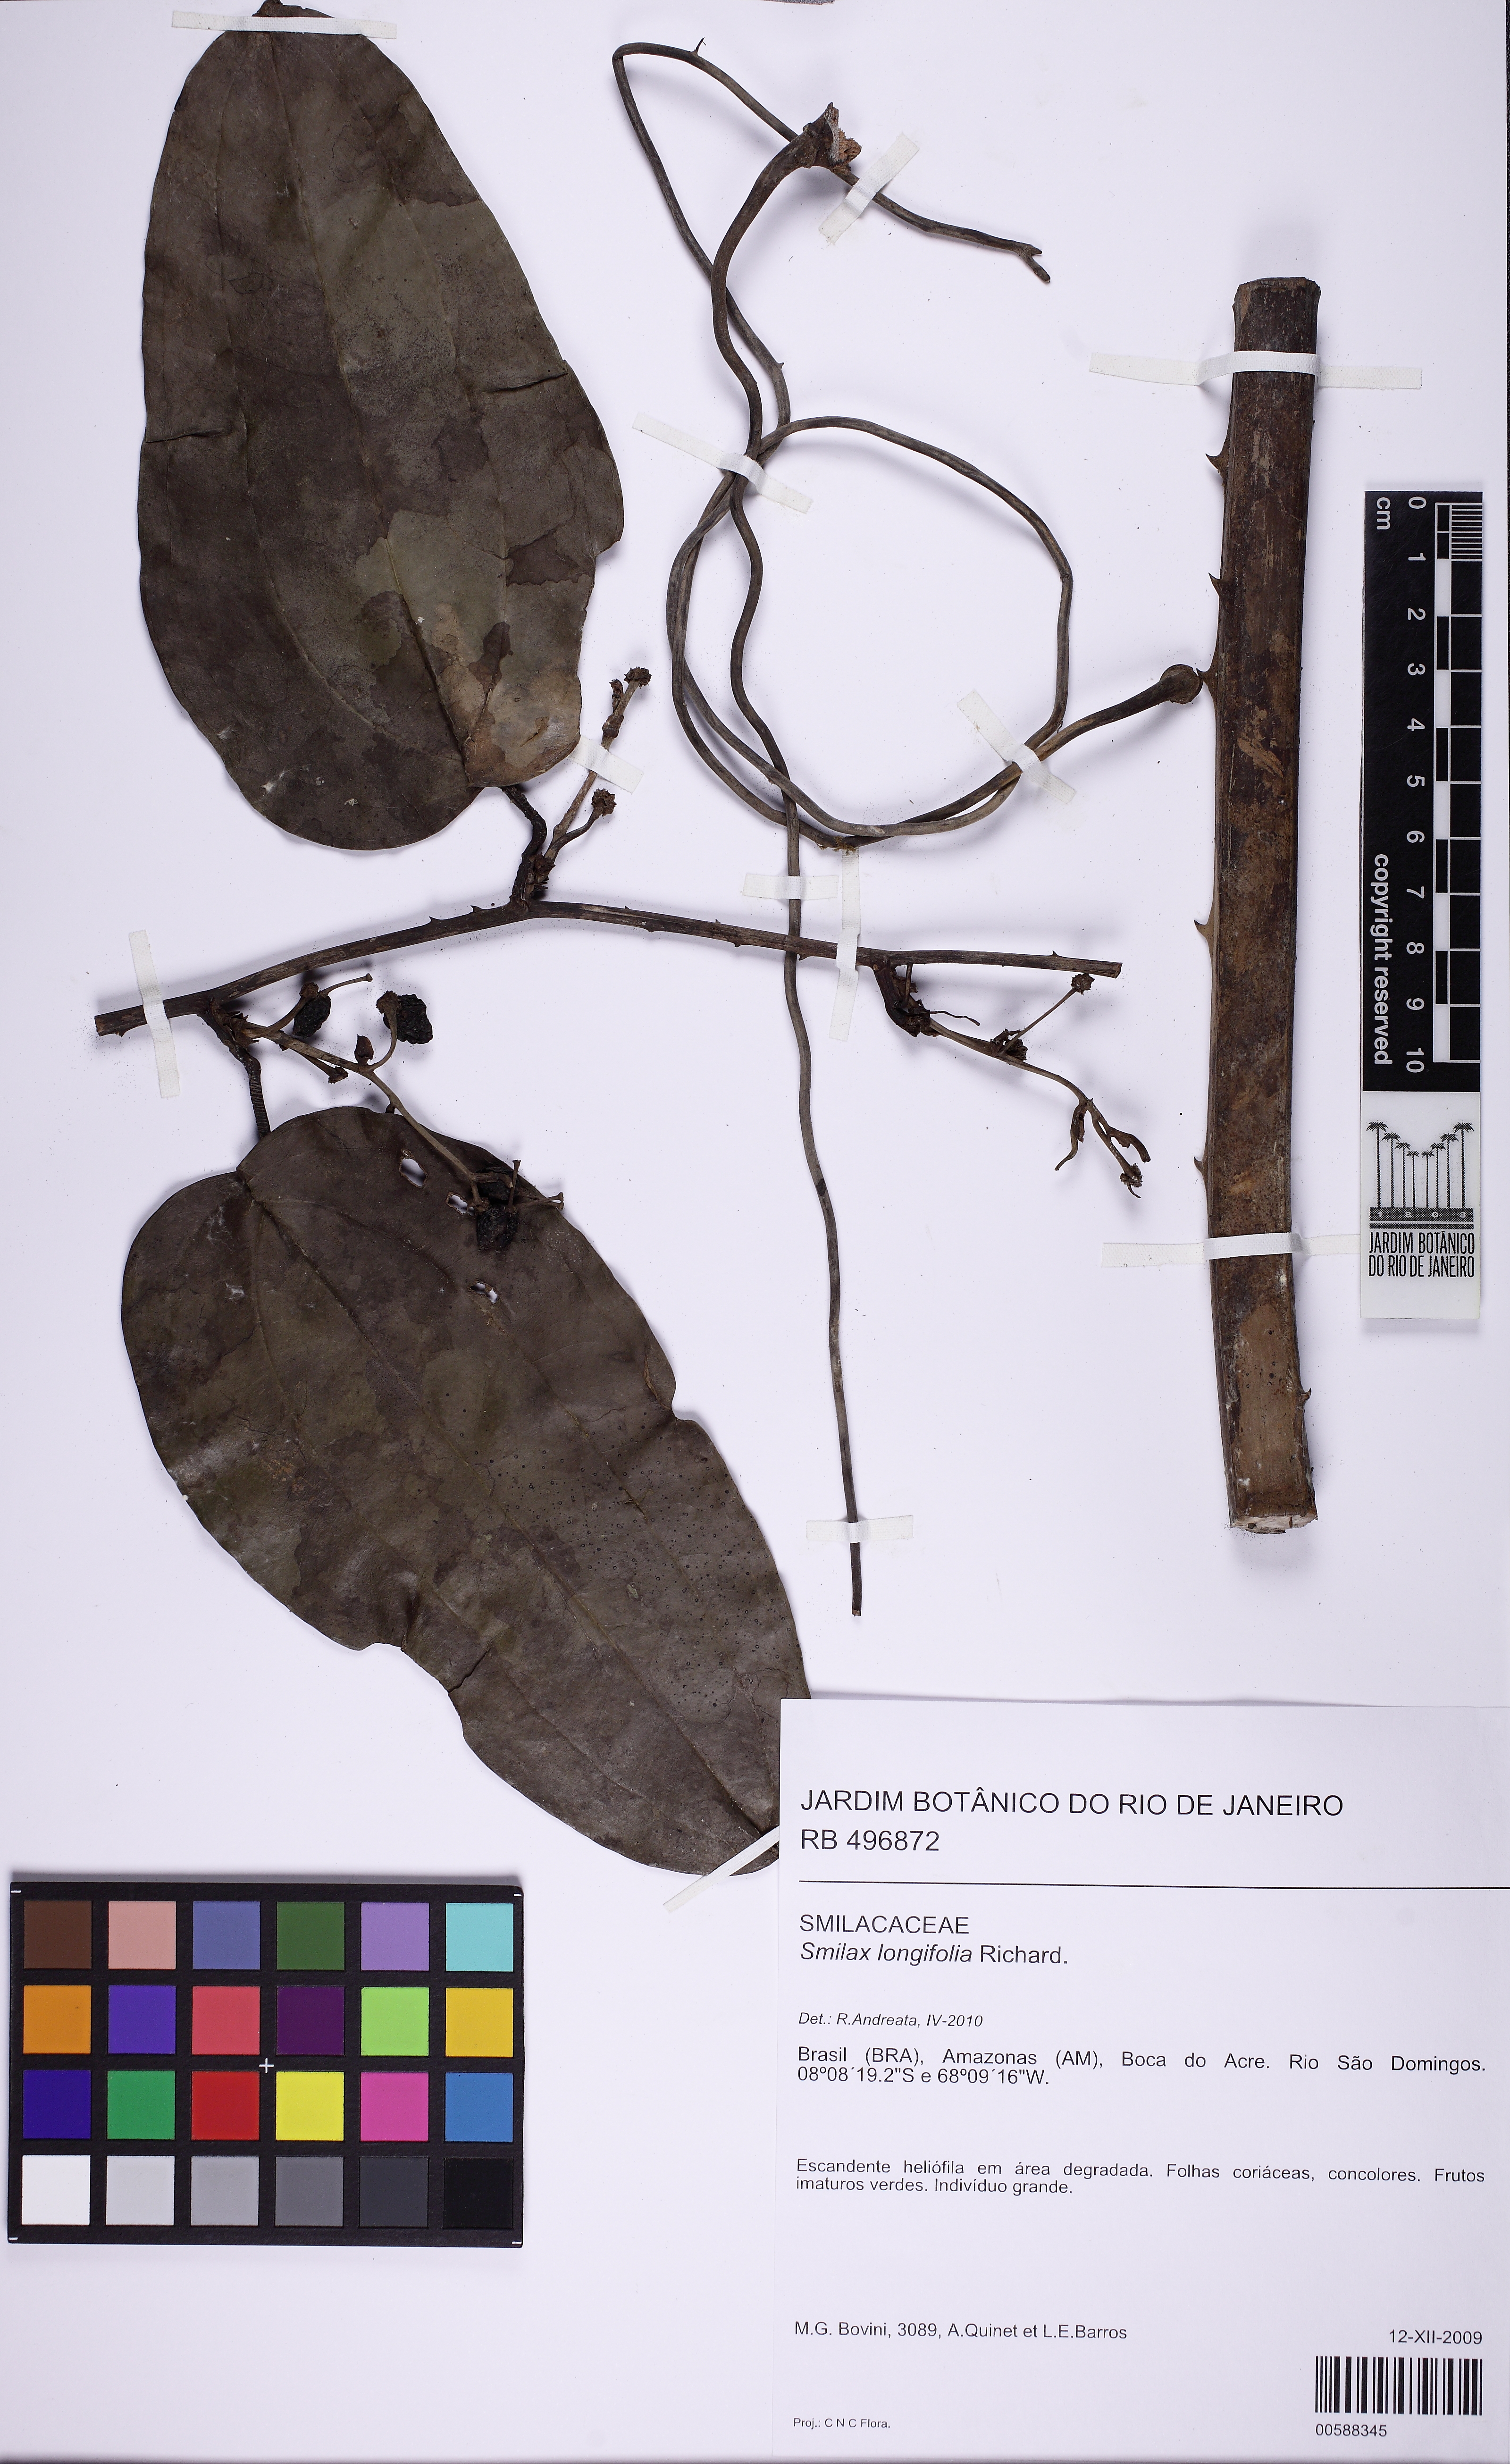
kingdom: Plantae
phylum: Tracheophyta
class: Liliopsida
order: Liliales
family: Smilacaceae
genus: Smilax
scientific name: Smilax longifolia
